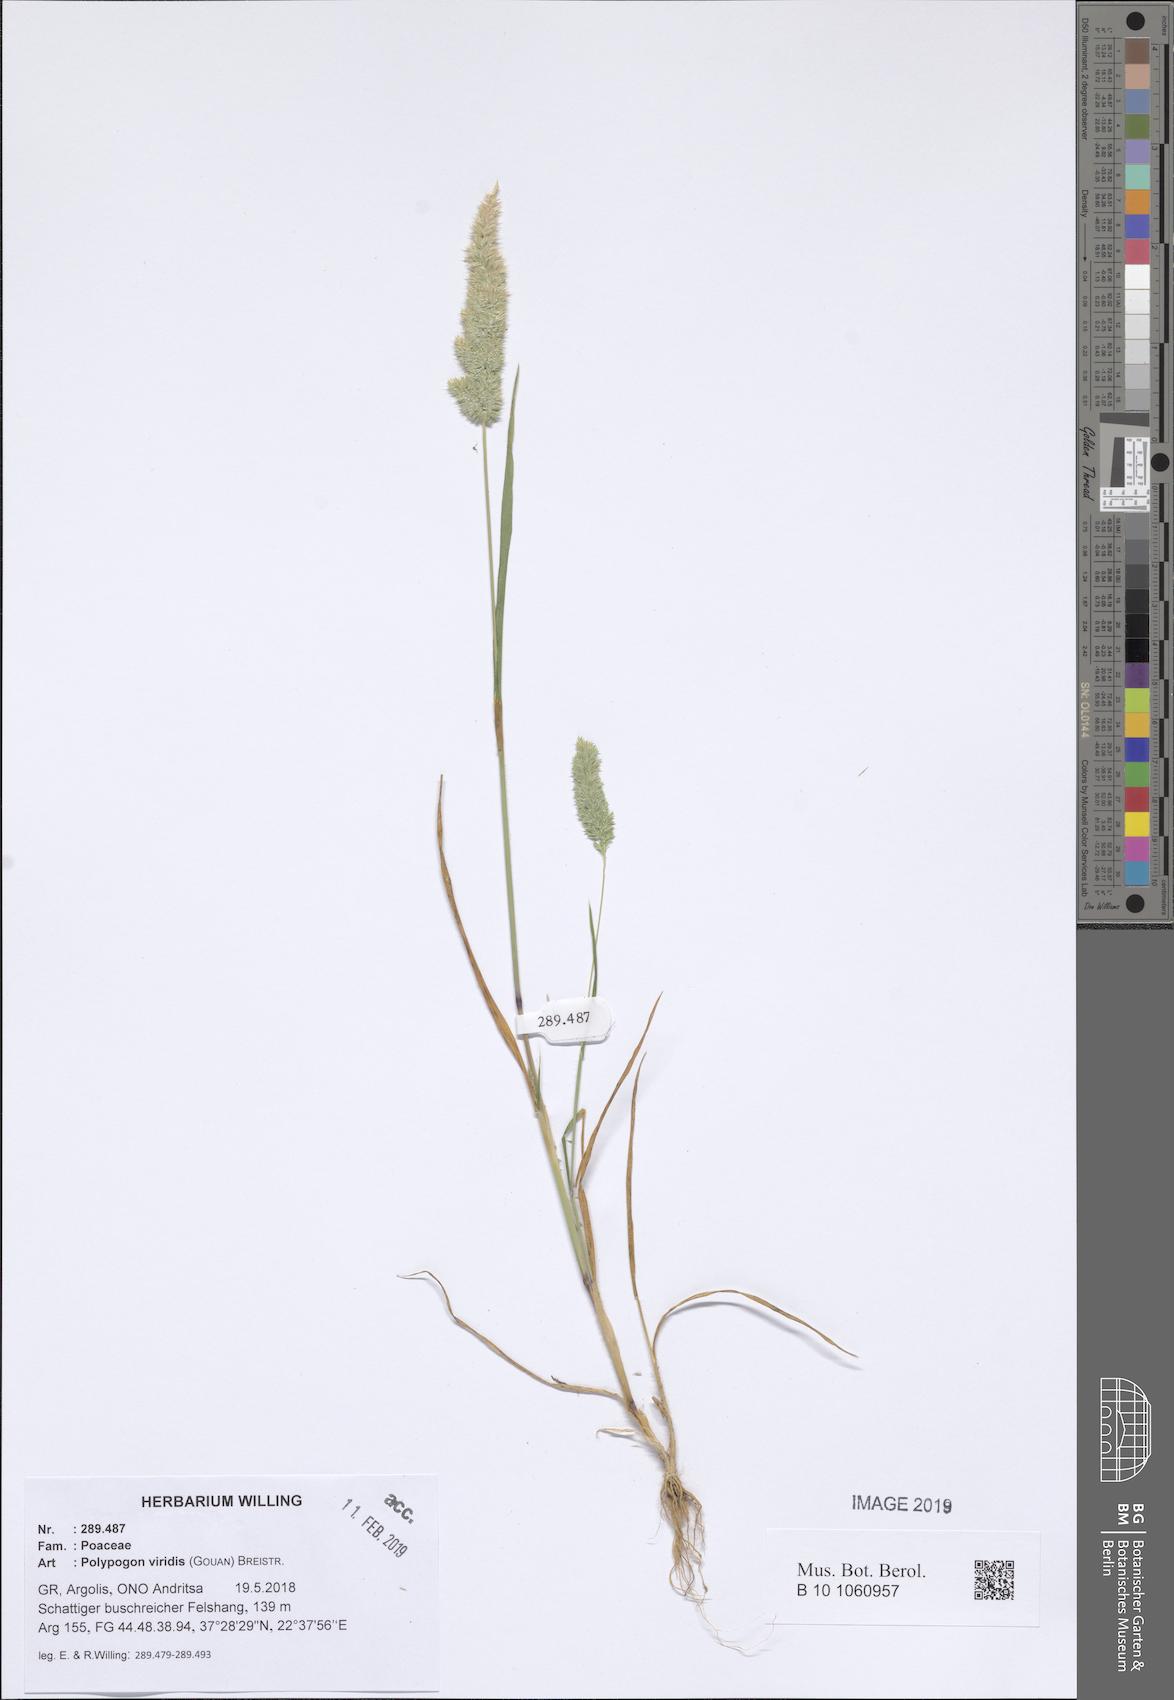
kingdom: Plantae
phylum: Tracheophyta
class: Liliopsida
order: Poales
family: Poaceae
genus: Polypogon
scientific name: Polypogon viridis
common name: Water bent
